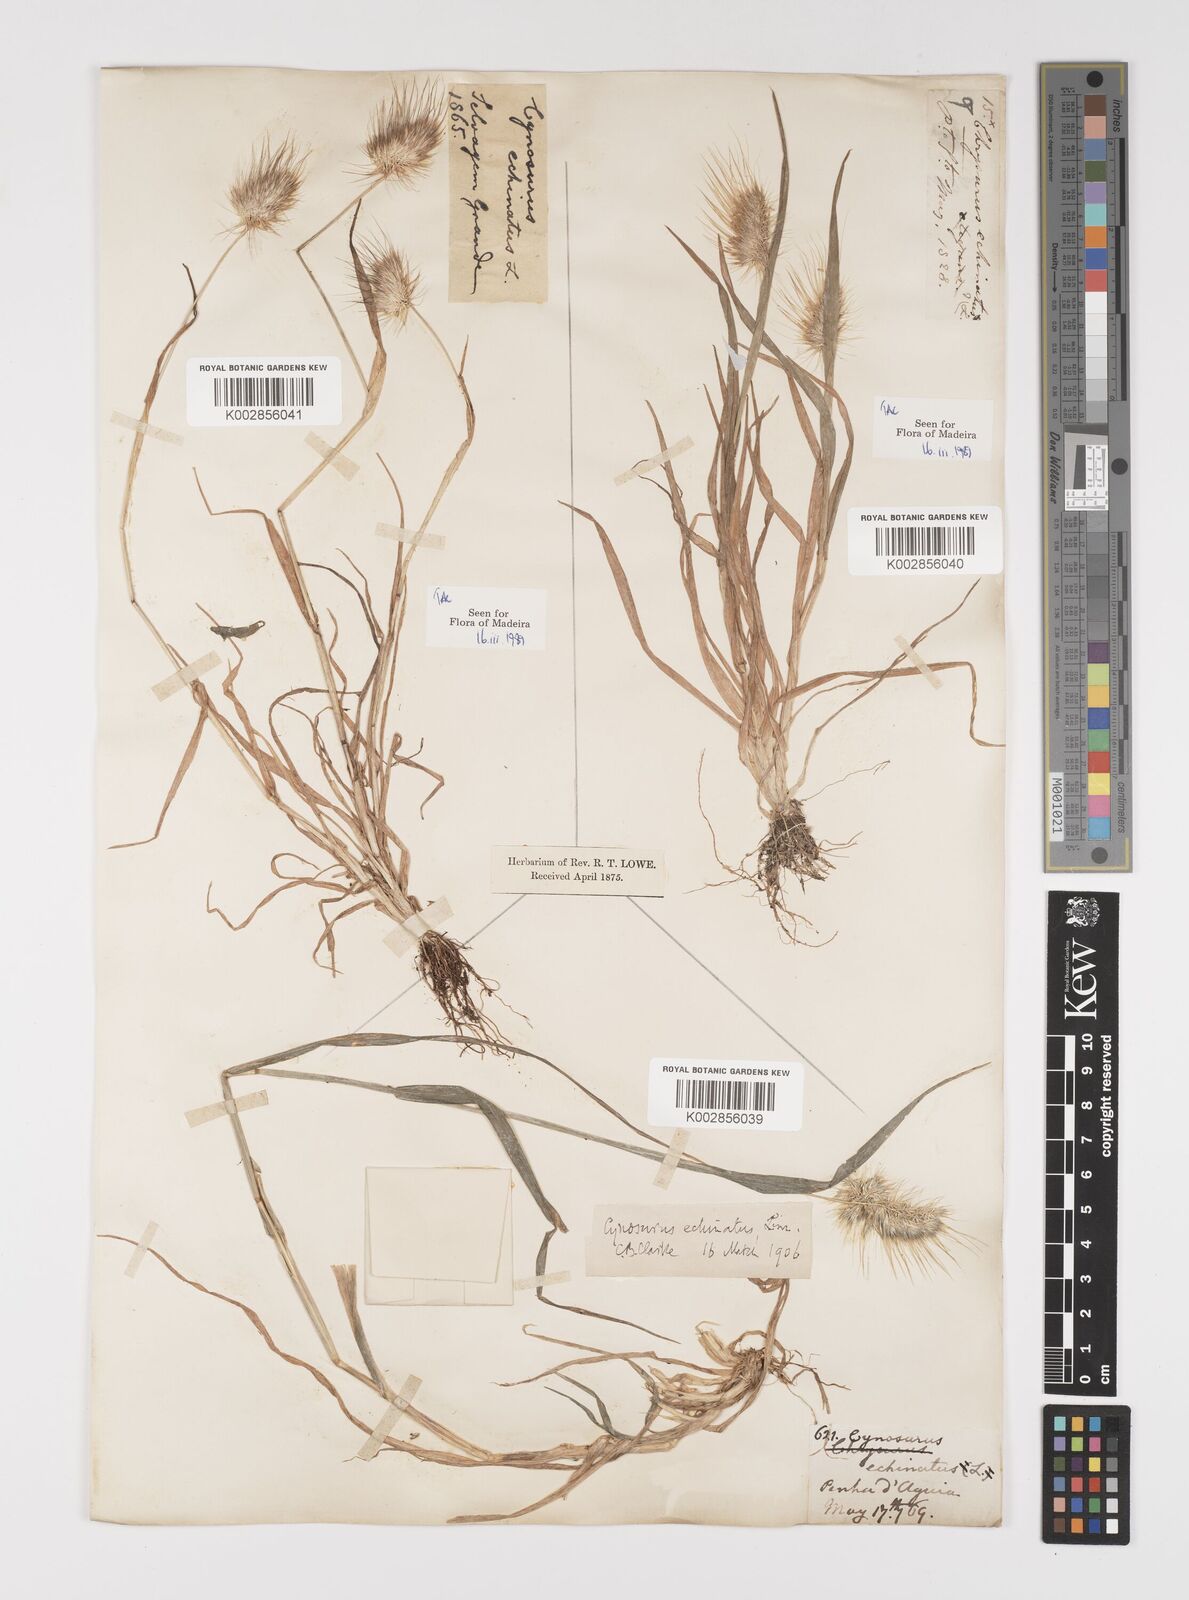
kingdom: Plantae
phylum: Tracheophyta
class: Liliopsida
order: Poales
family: Poaceae
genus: Cynosurus
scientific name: Cynosurus echinatus
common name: Rough dog's-tail
